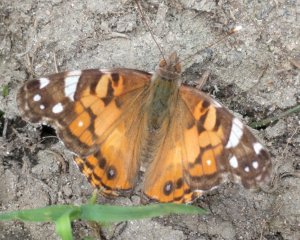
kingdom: Animalia
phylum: Arthropoda
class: Insecta
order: Lepidoptera
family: Nymphalidae
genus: Vanessa
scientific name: Vanessa virginiensis
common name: American Lady
